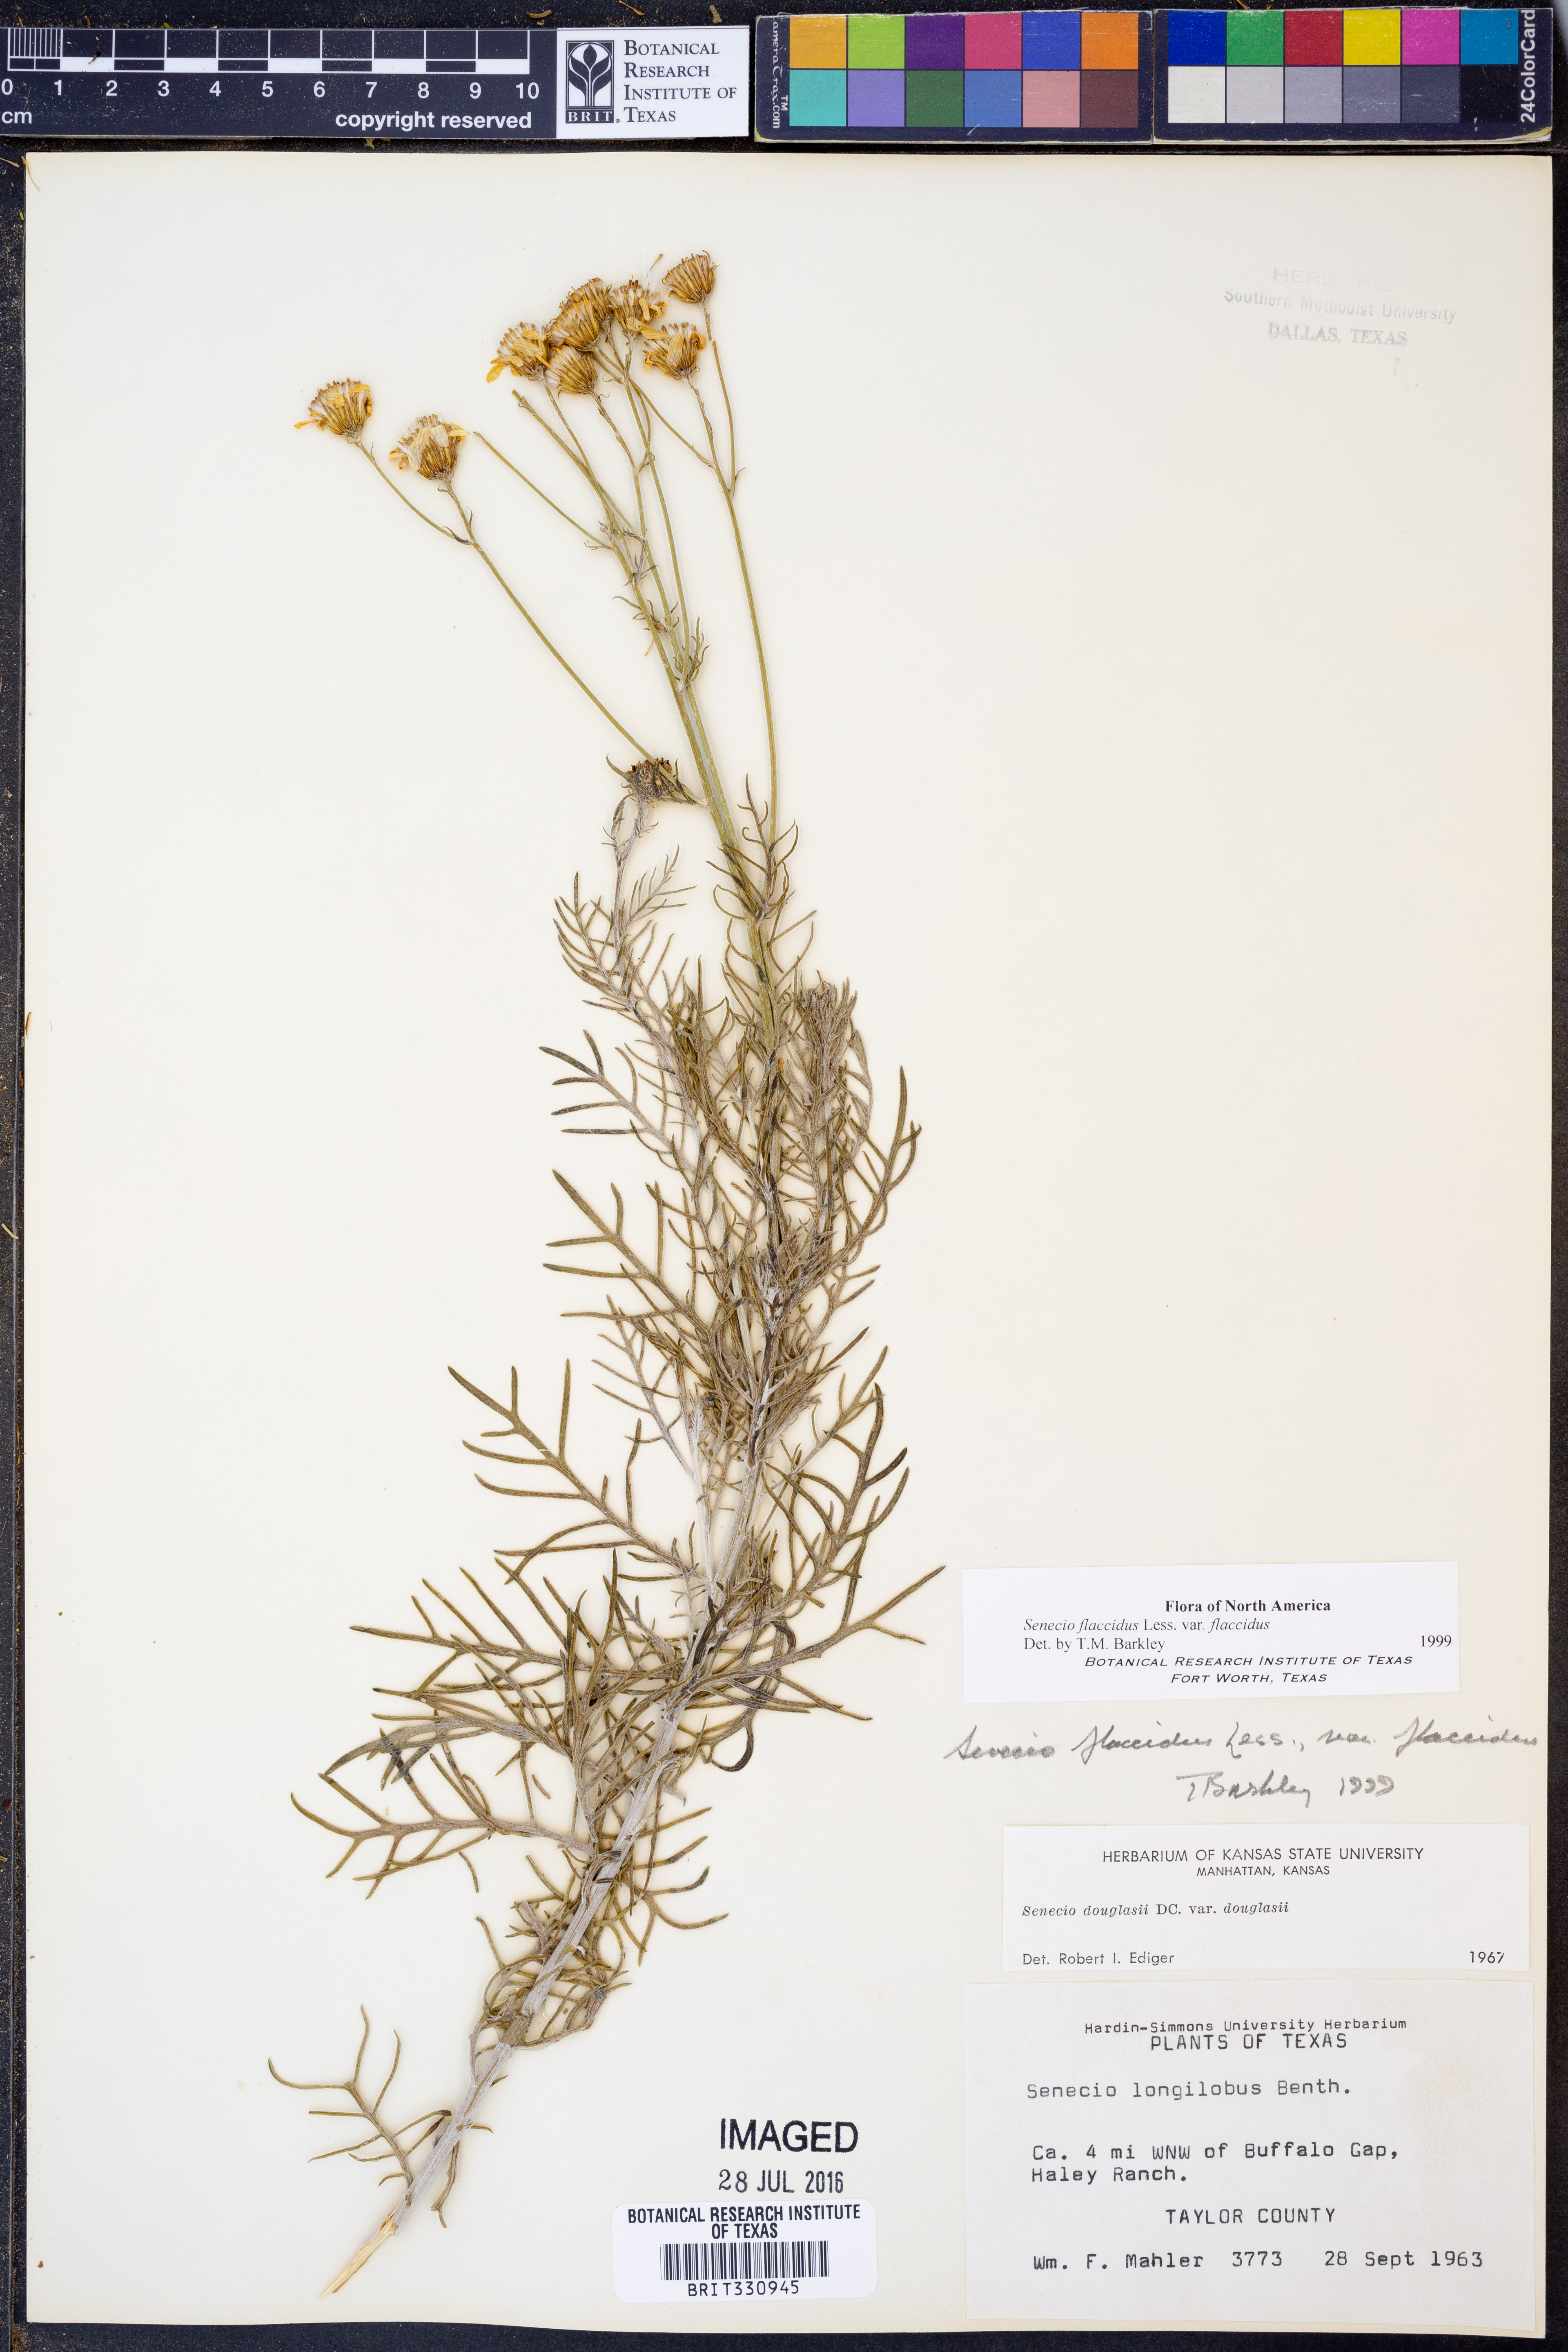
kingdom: Plantae
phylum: Tracheophyta
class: Magnoliopsida
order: Asterales
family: Asteraceae
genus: Senecio
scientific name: Senecio flaccidus
